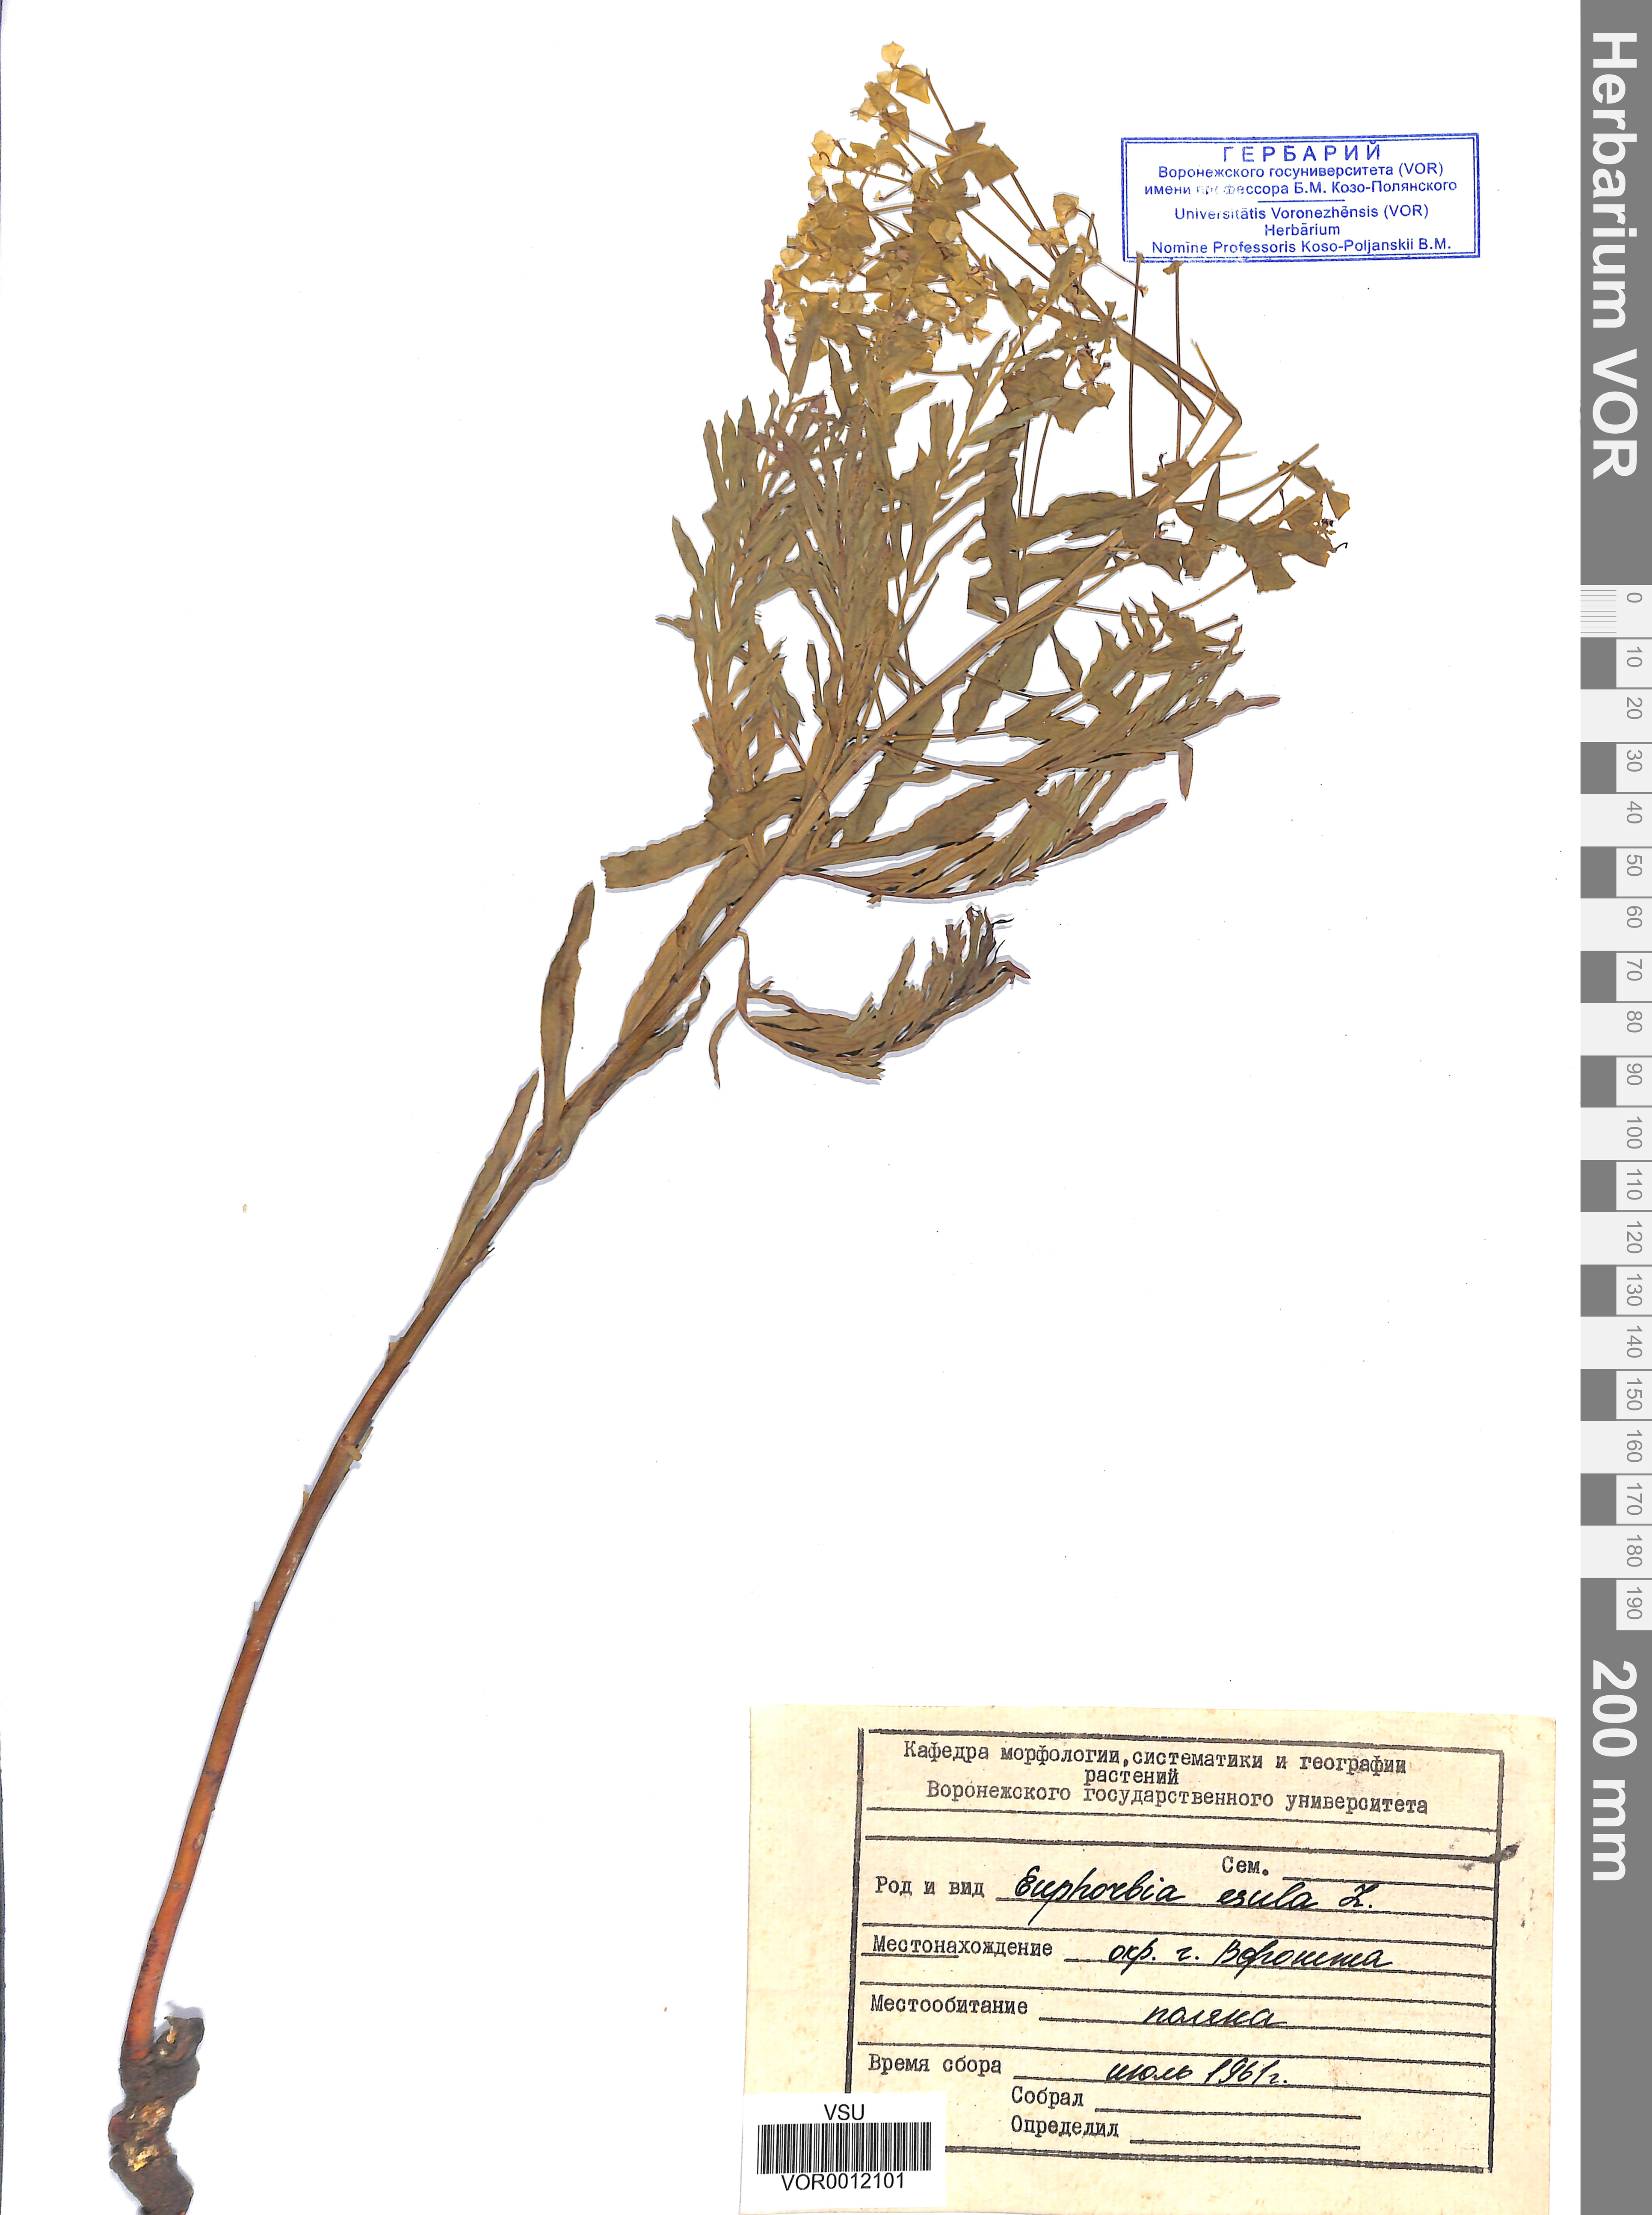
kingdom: Plantae
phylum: Tracheophyta
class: Magnoliopsida
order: Malpighiales
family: Euphorbiaceae
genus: Euphorbia
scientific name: Euphorbia esula
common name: Leafy spurge
